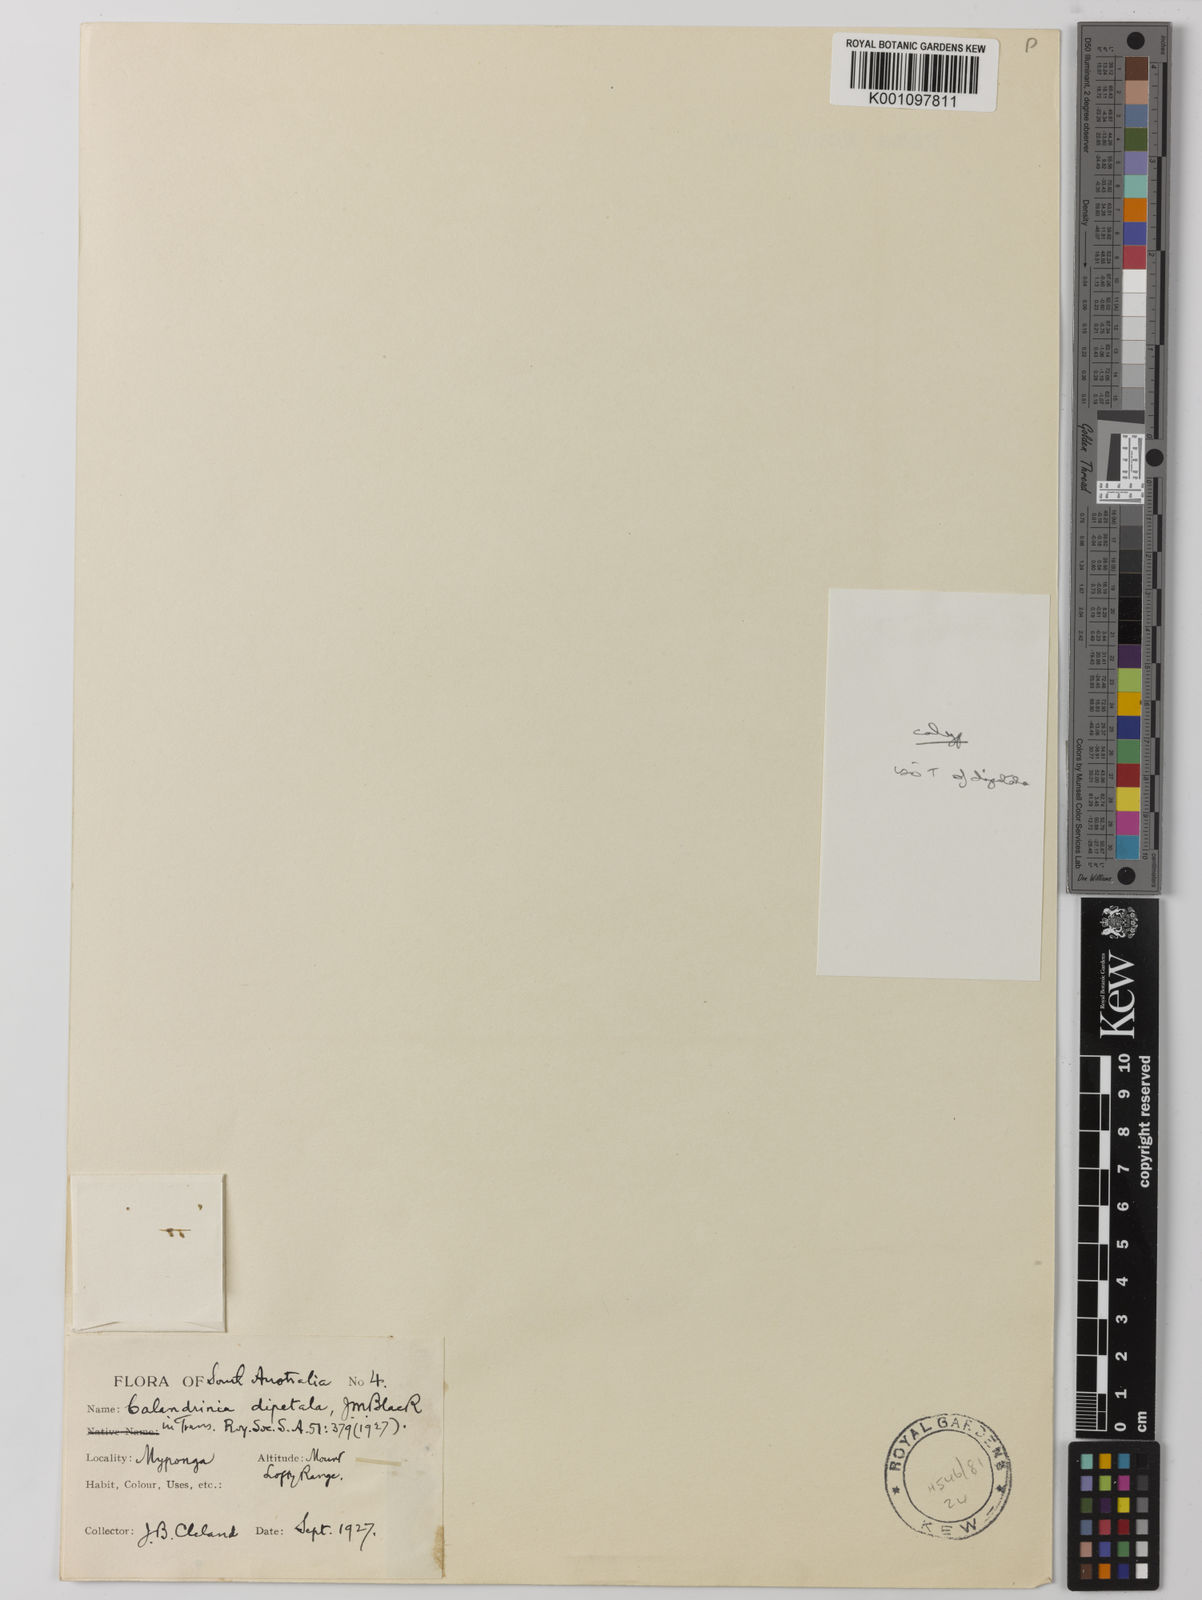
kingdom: Plantae
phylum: Tracheophyta
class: Magnoliopsida
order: Caryophyllales
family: Montiaceae
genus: Rumicastrum
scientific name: Rumicastrum dipetalum
